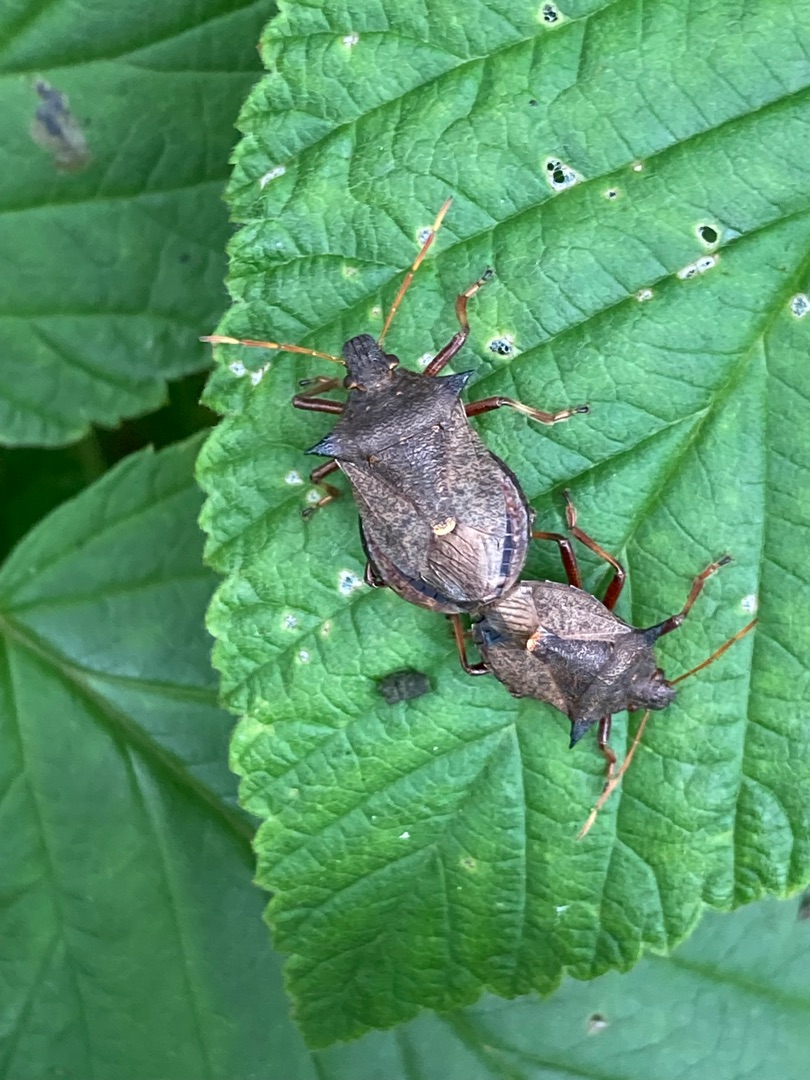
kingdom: Animalia
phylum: Arthropoda
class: Insecta
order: Hemiptera
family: Pentatomidae
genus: Picromerus
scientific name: Picromerus bidens
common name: Torntæge
